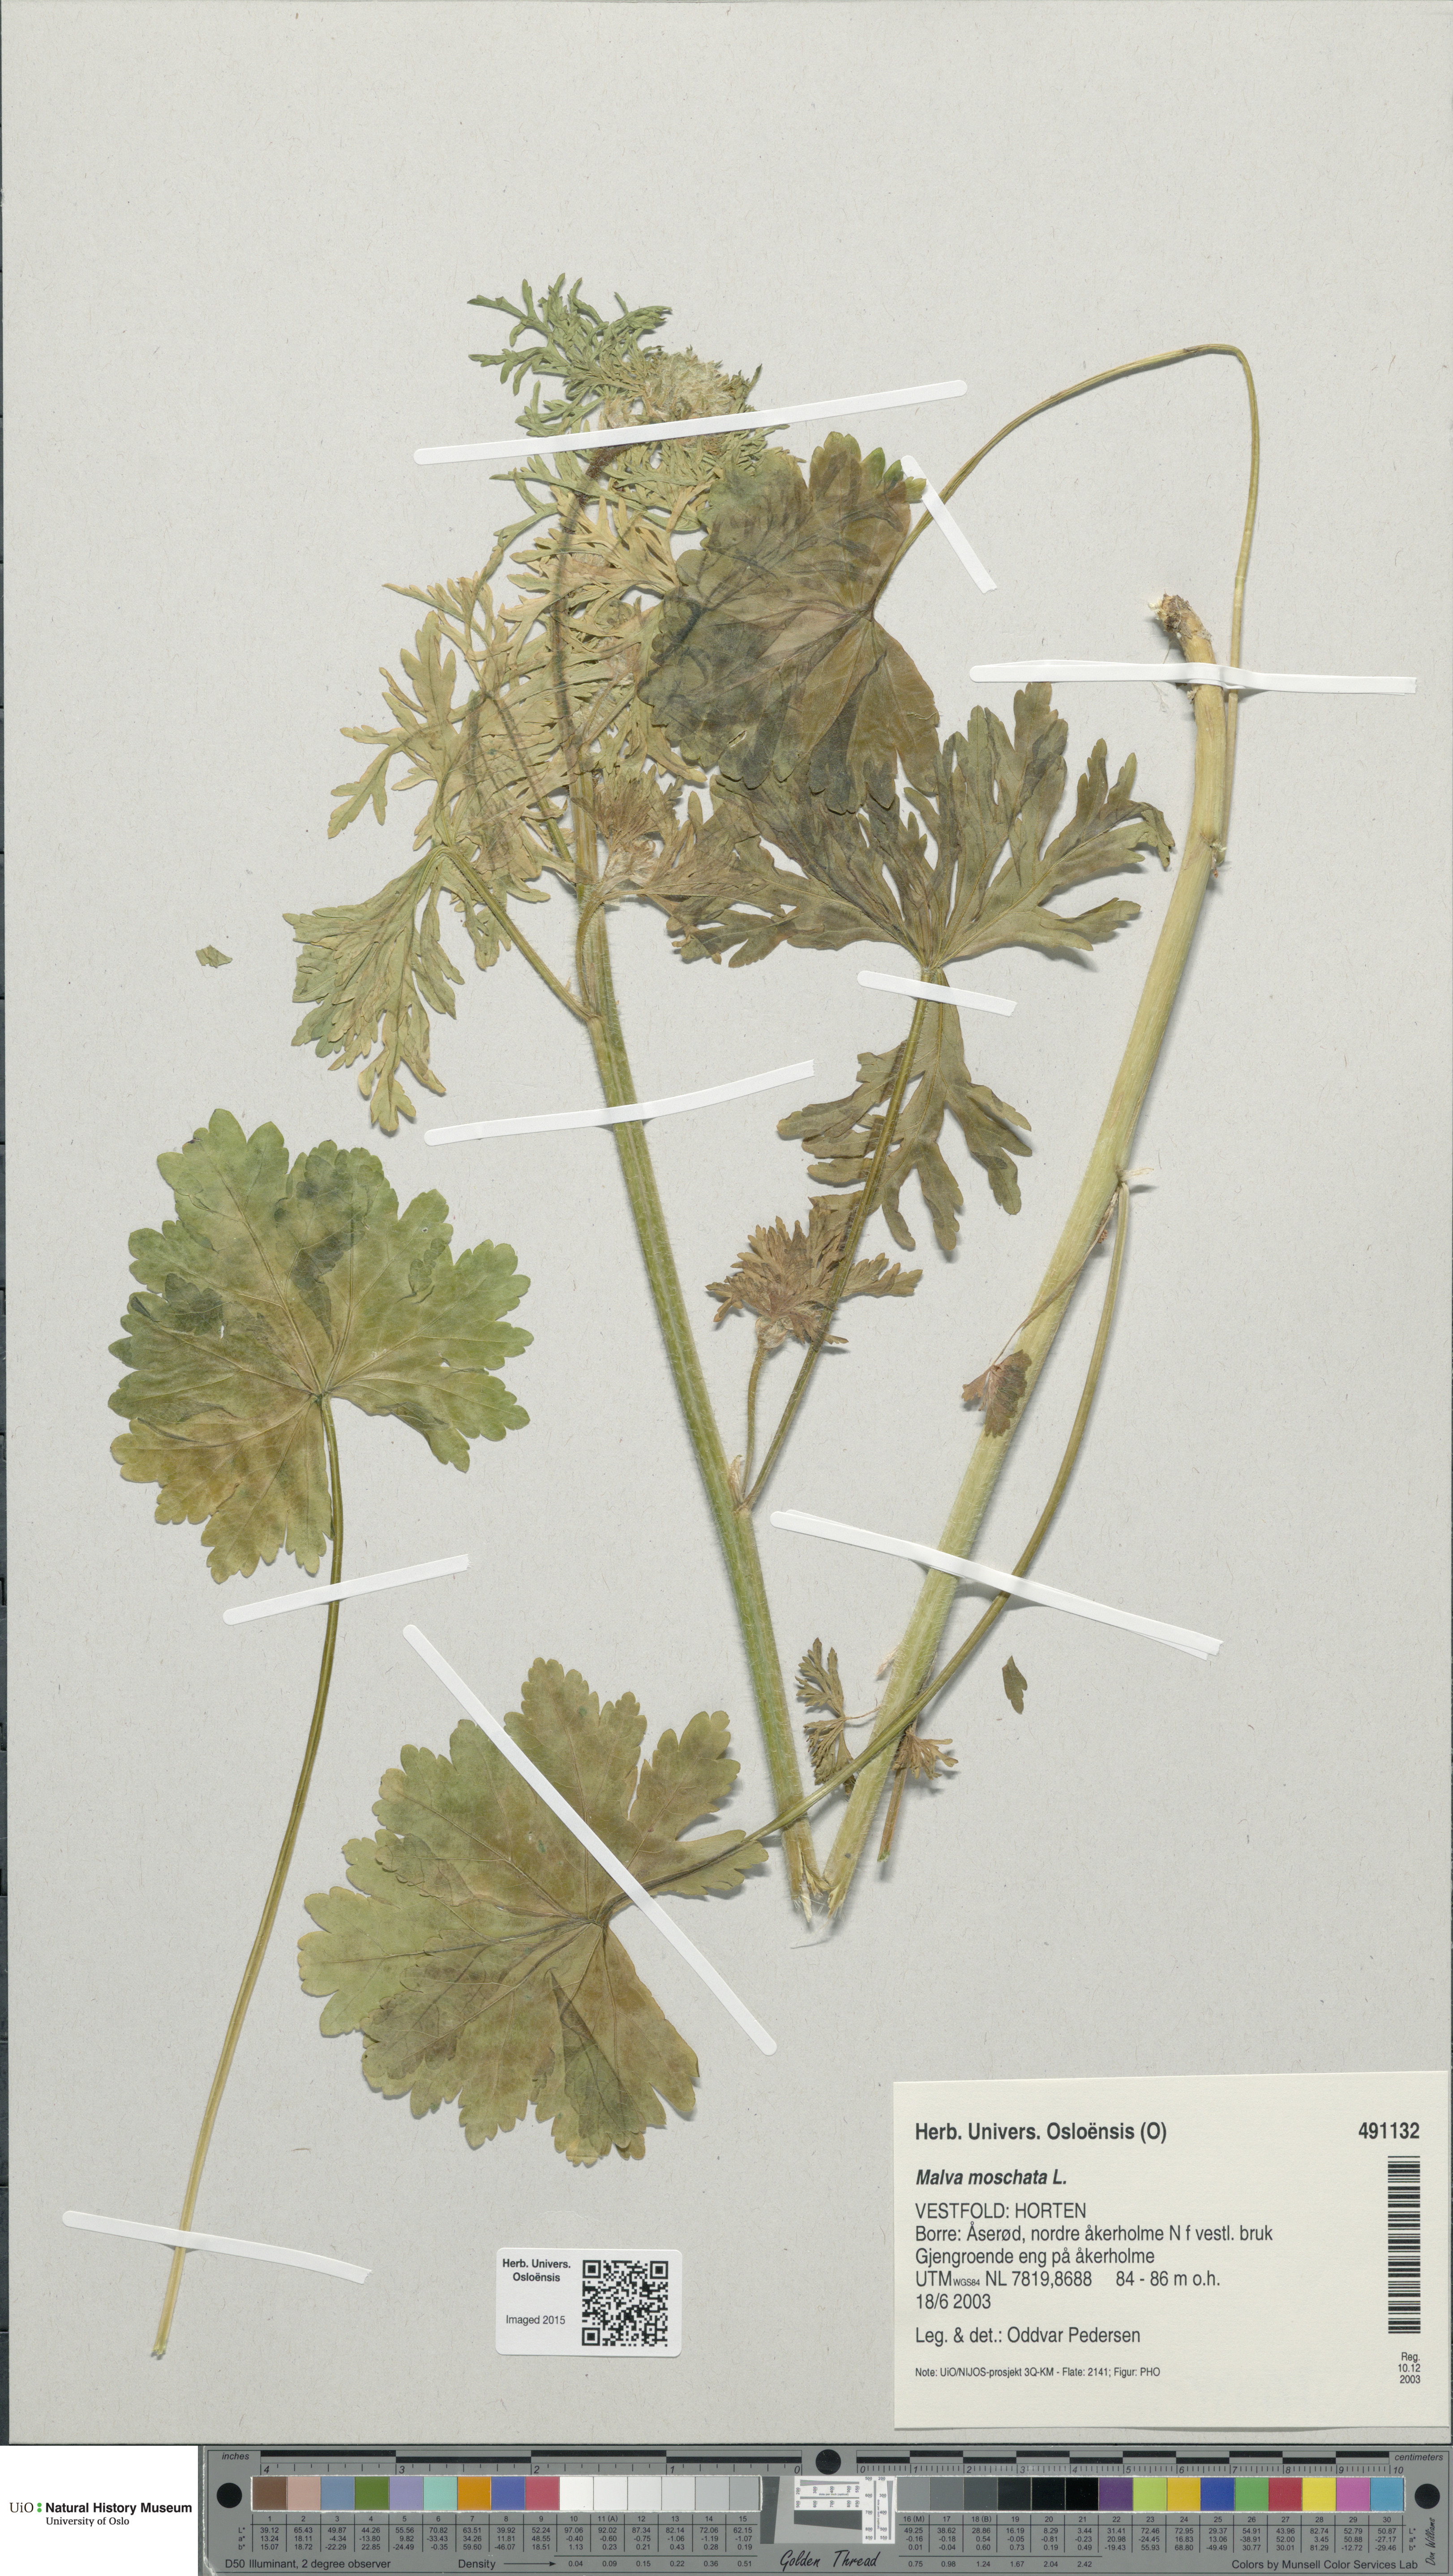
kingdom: Plantae
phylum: Tracheophyta
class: Magnoliopsida
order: Malvales
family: Malvaceae
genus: Malva
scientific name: Malva moschata
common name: Musk mallow
